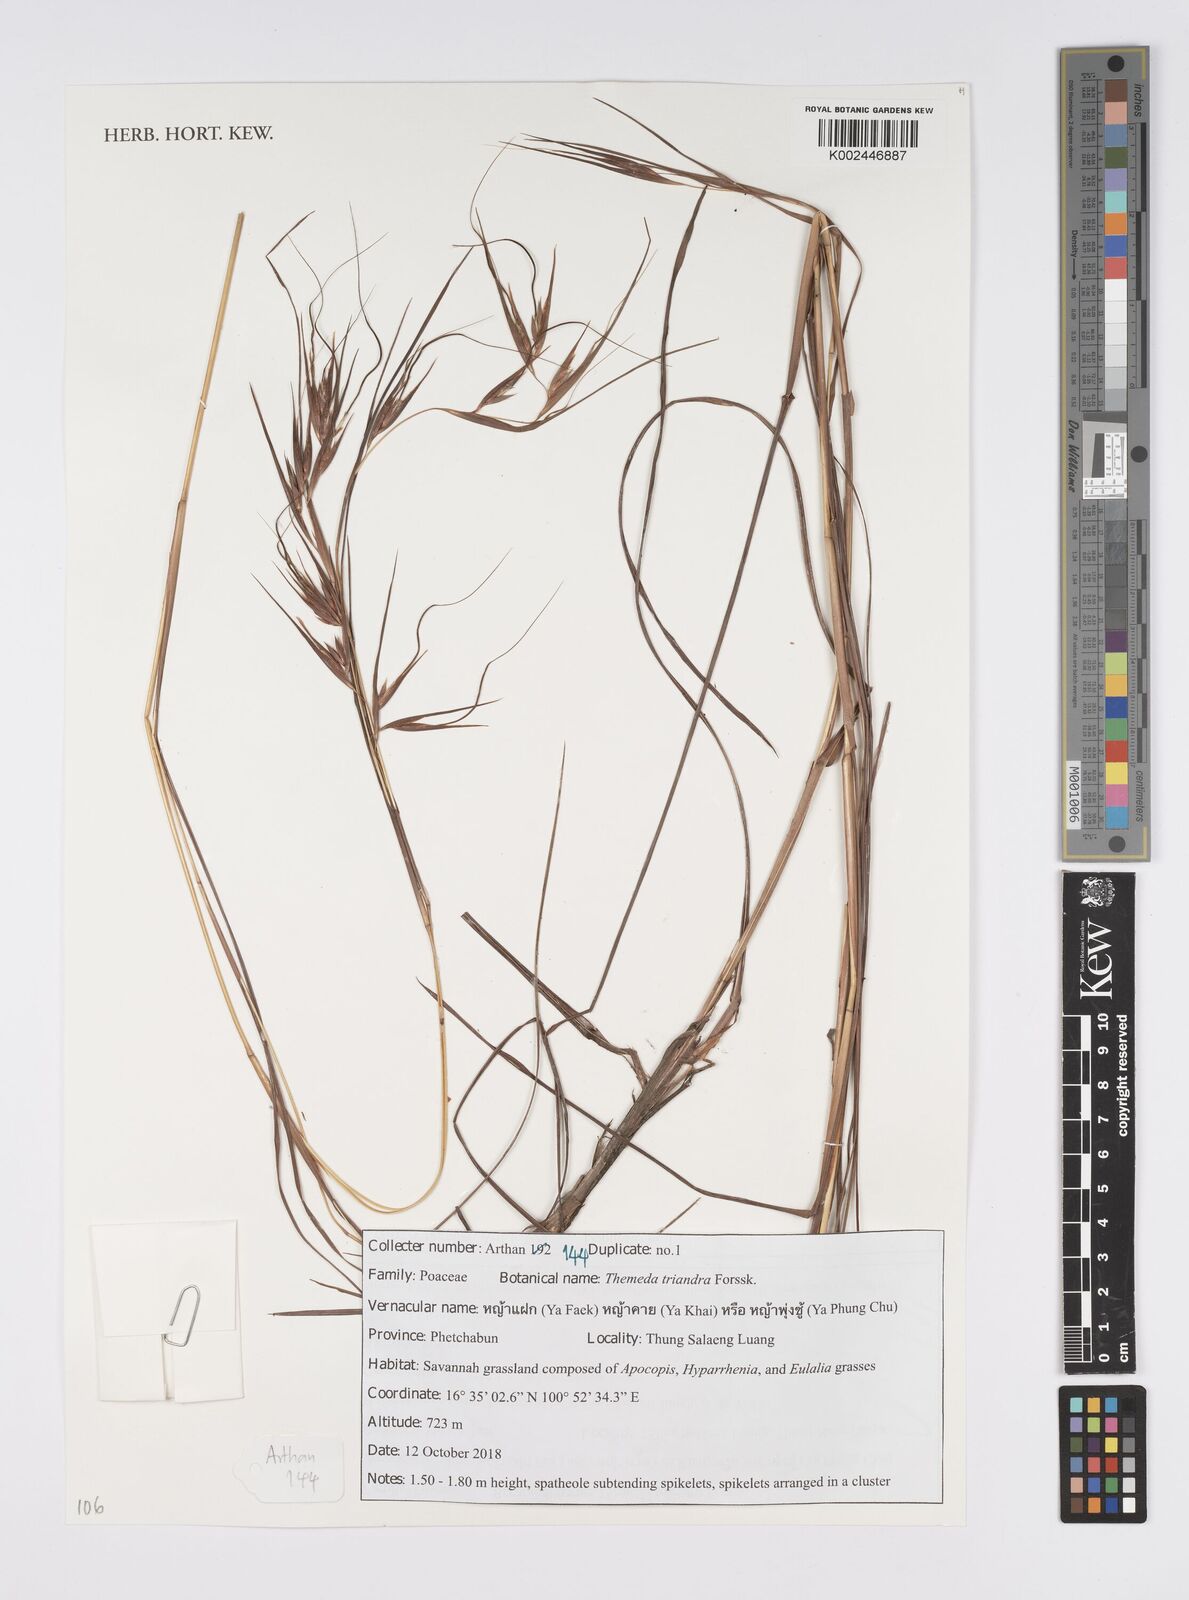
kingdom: Plantae
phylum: Tracheophyta
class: Liliopsida
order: Poales
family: Poaceae
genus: Themeda
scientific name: Themeda triandra
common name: Kangaroo grass
